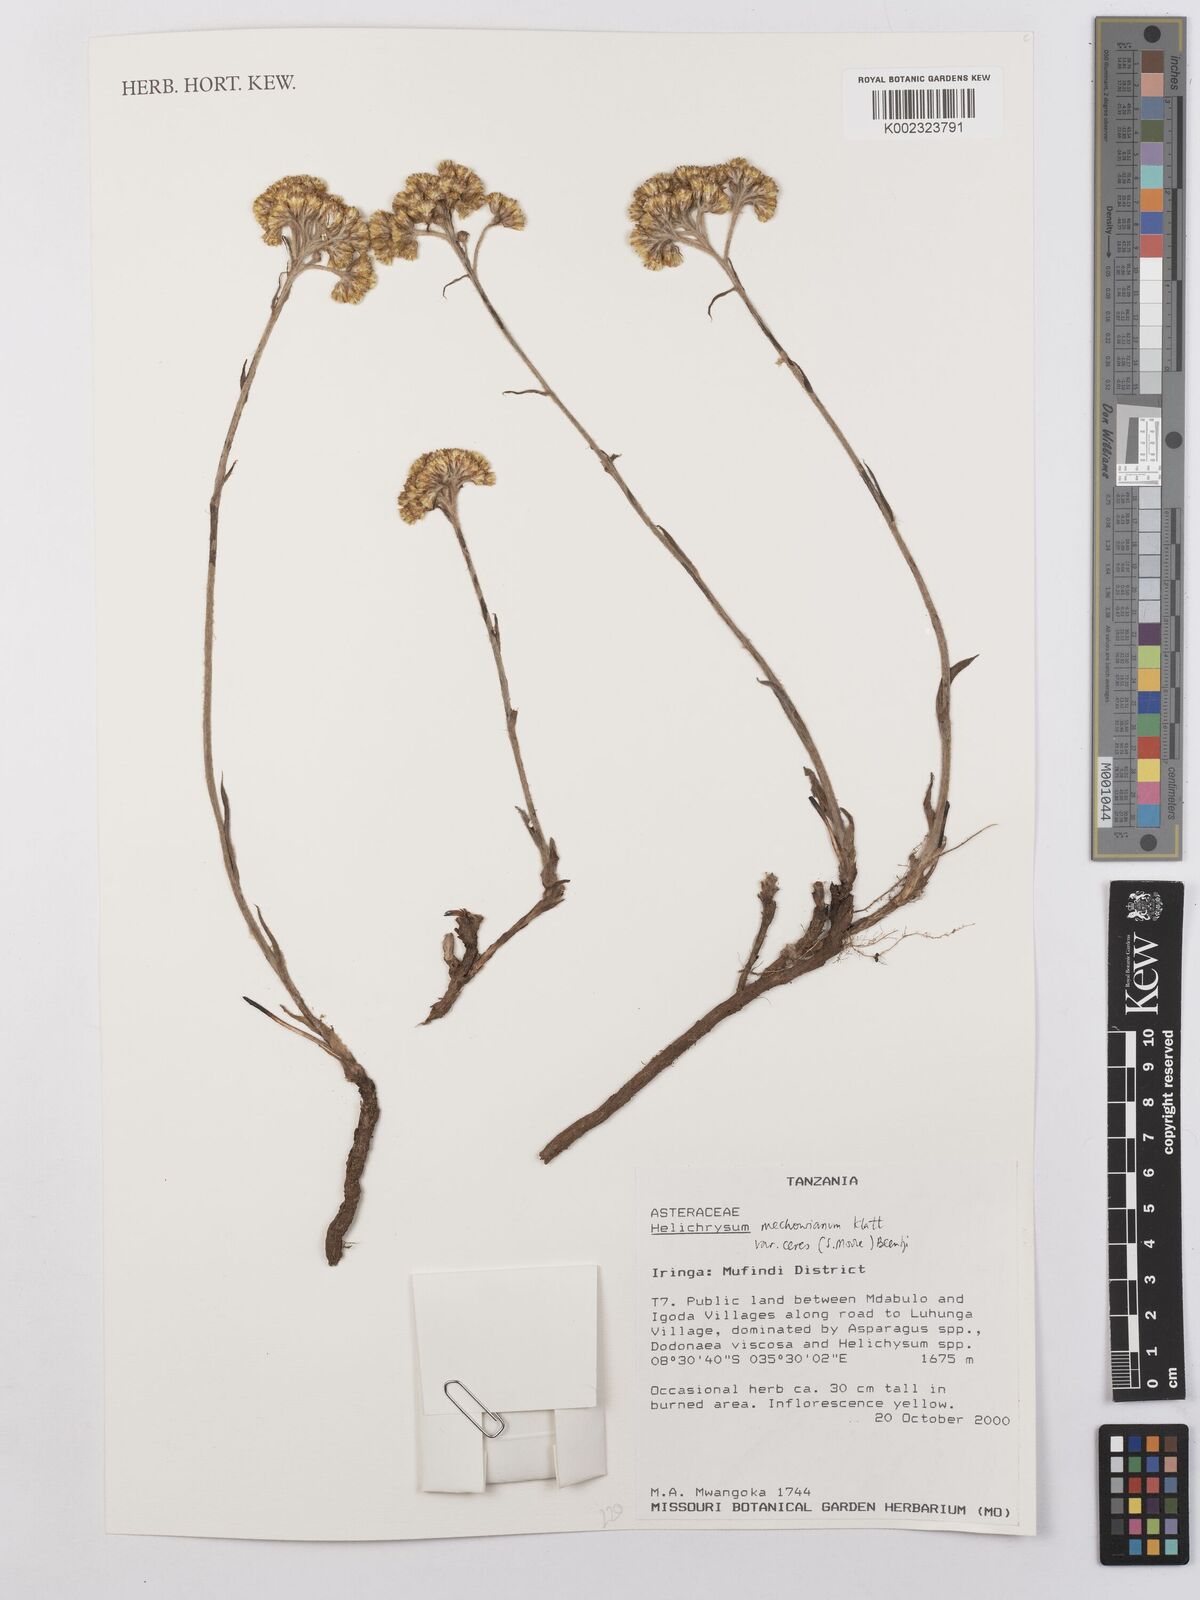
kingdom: Plantae
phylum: Tracheophyta
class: Magnoliopsida
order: Asterales
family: Asteraceae
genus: Helichrysum
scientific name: Helichrysum mechowianum
